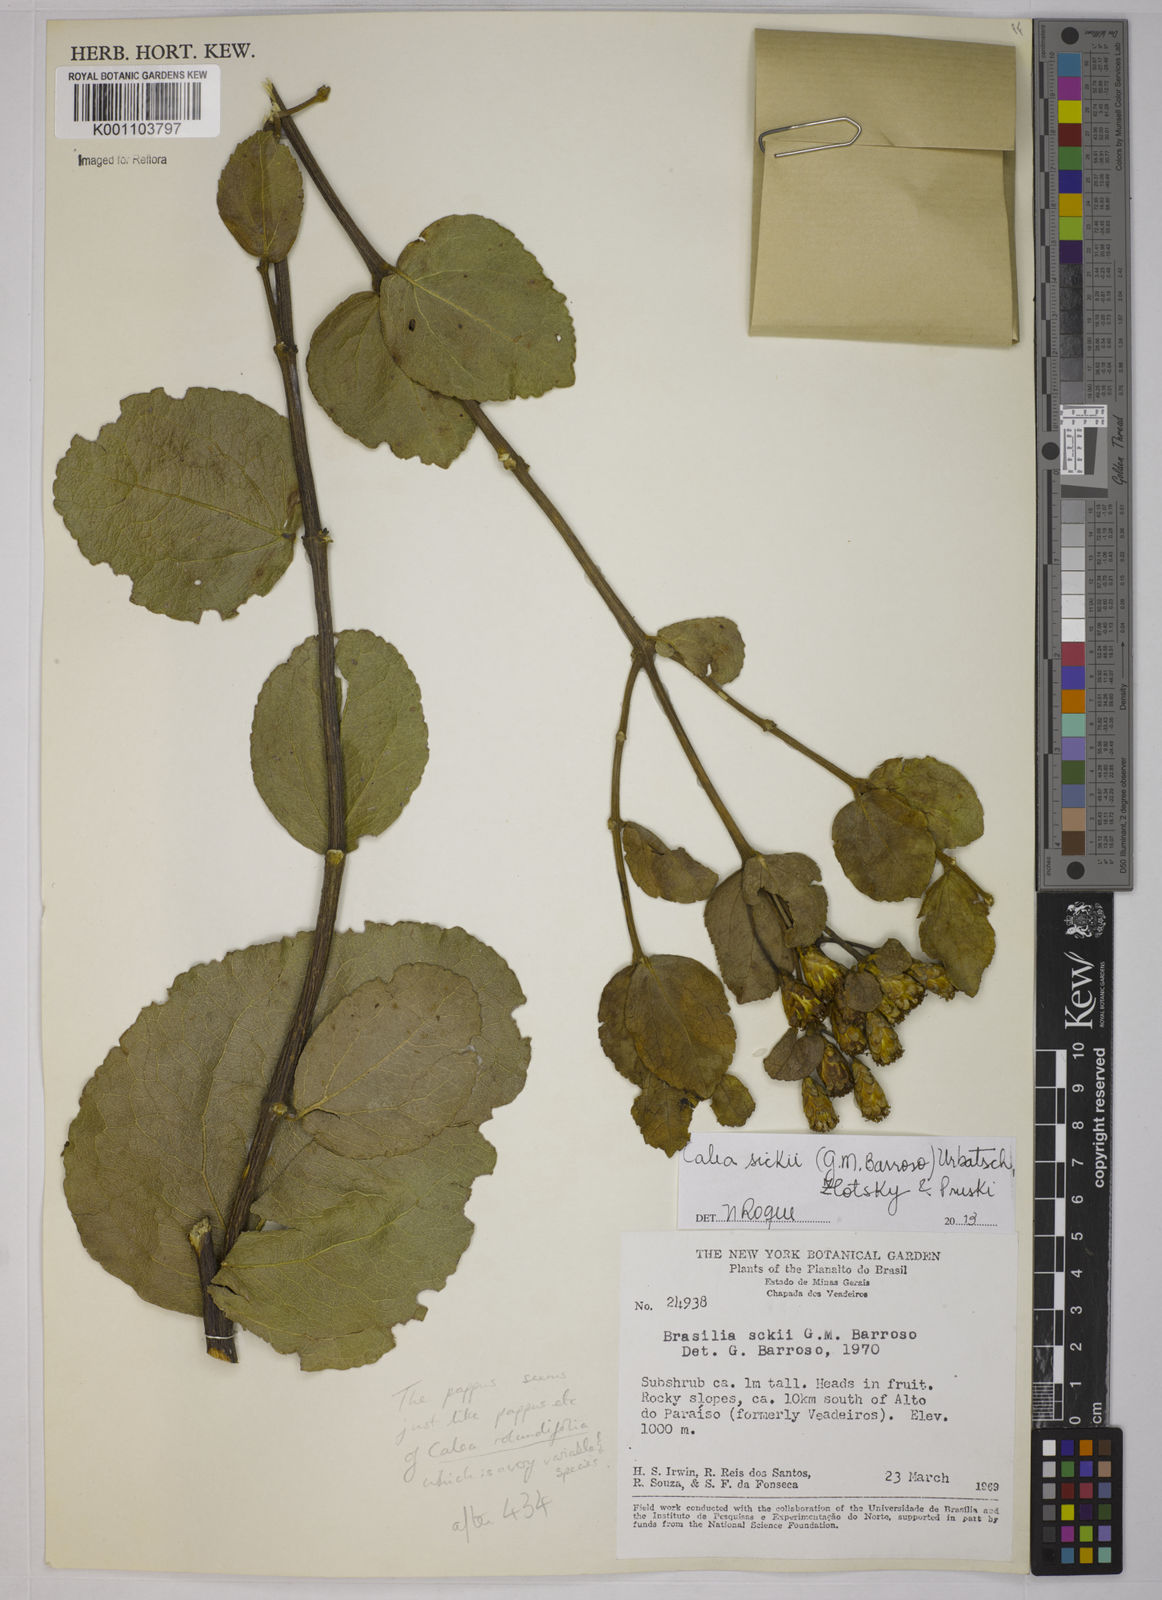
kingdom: Plantae
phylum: Tracheophyta
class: Magnoliopsida
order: Asterales
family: Asteraceae
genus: Calea
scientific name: Calea sickii
